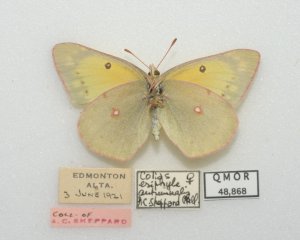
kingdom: Animalia
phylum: Arthropoda
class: Insecta
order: Lepidoptera
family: Pieridae
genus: Colias
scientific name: Colias philodice
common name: Clouded Sulphur
